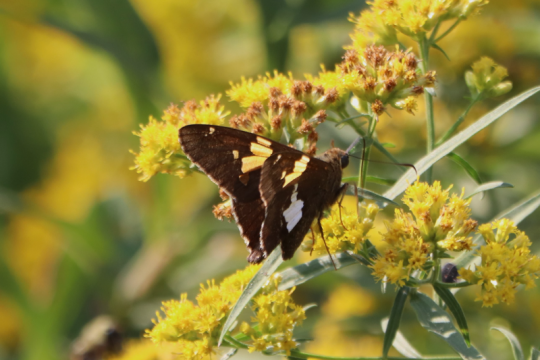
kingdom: Animalia
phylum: Arthropoda
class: Insecta
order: Lepidoptera
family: Hesperiidae
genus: Epargyreus
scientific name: Epargyreus clarus
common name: Silver-spotted Skipper
